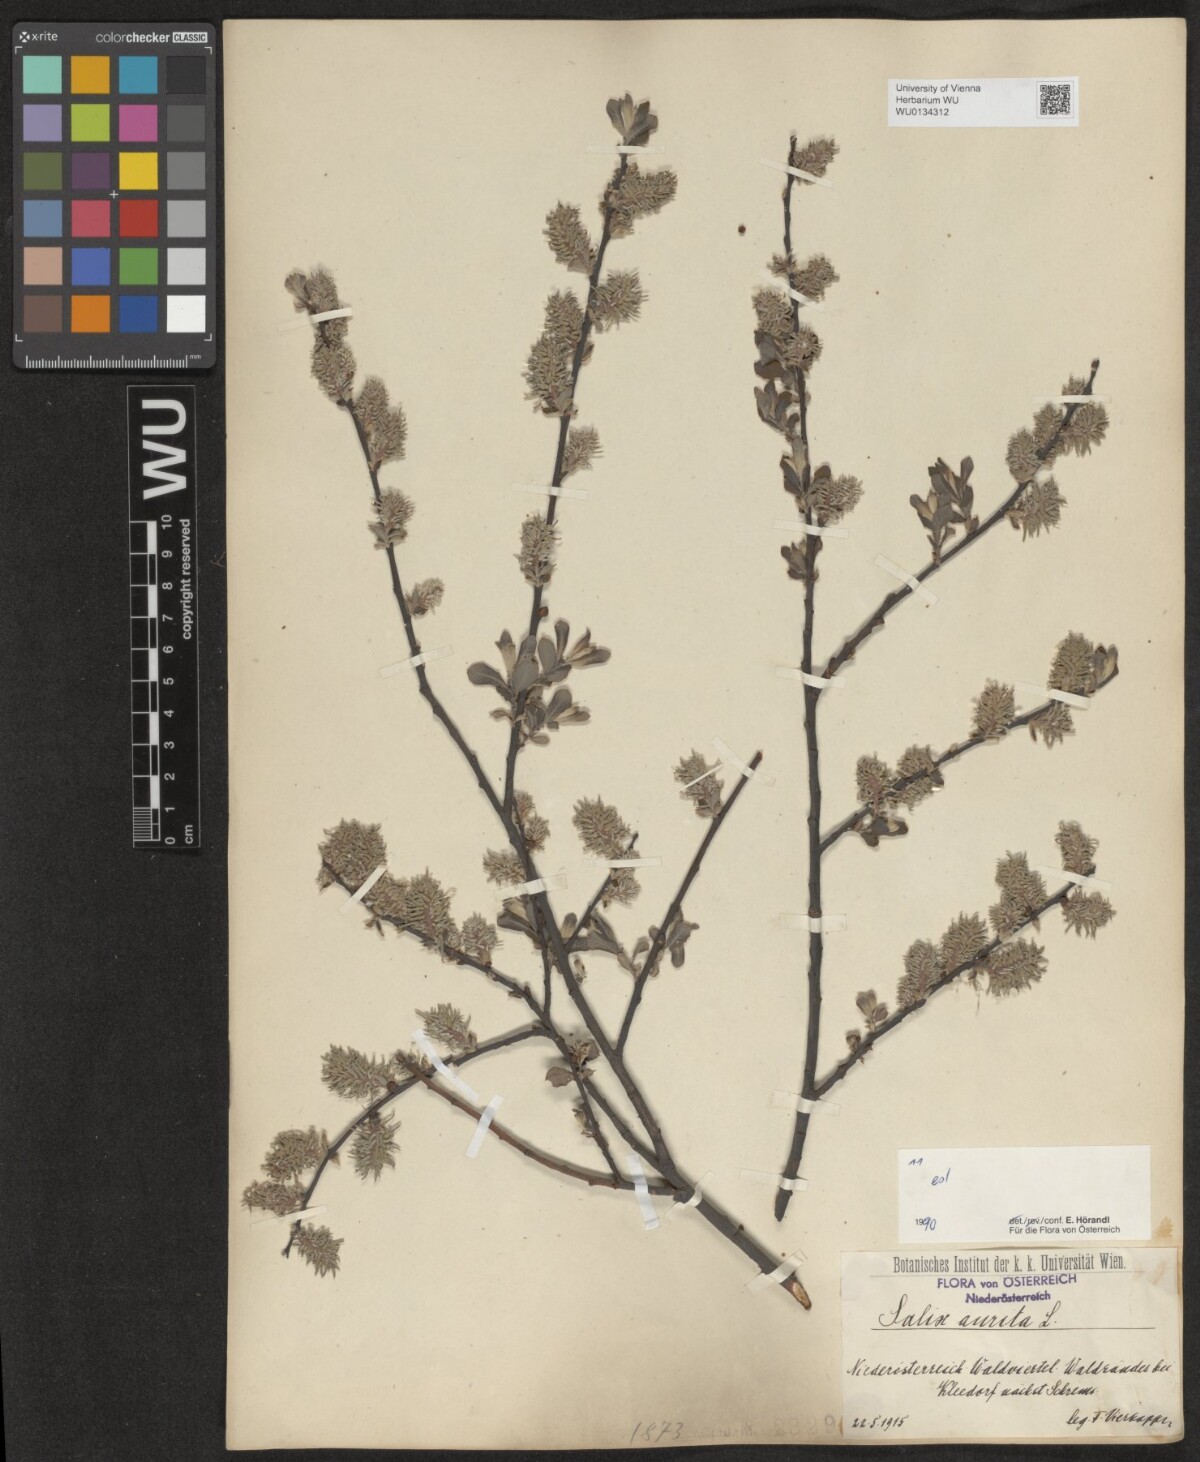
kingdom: Plantae
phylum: Tracheophyta
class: Magnoliopsida
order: Malpighiales
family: Salicaceae
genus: Salix
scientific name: Salix aurita
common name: Eared willow
